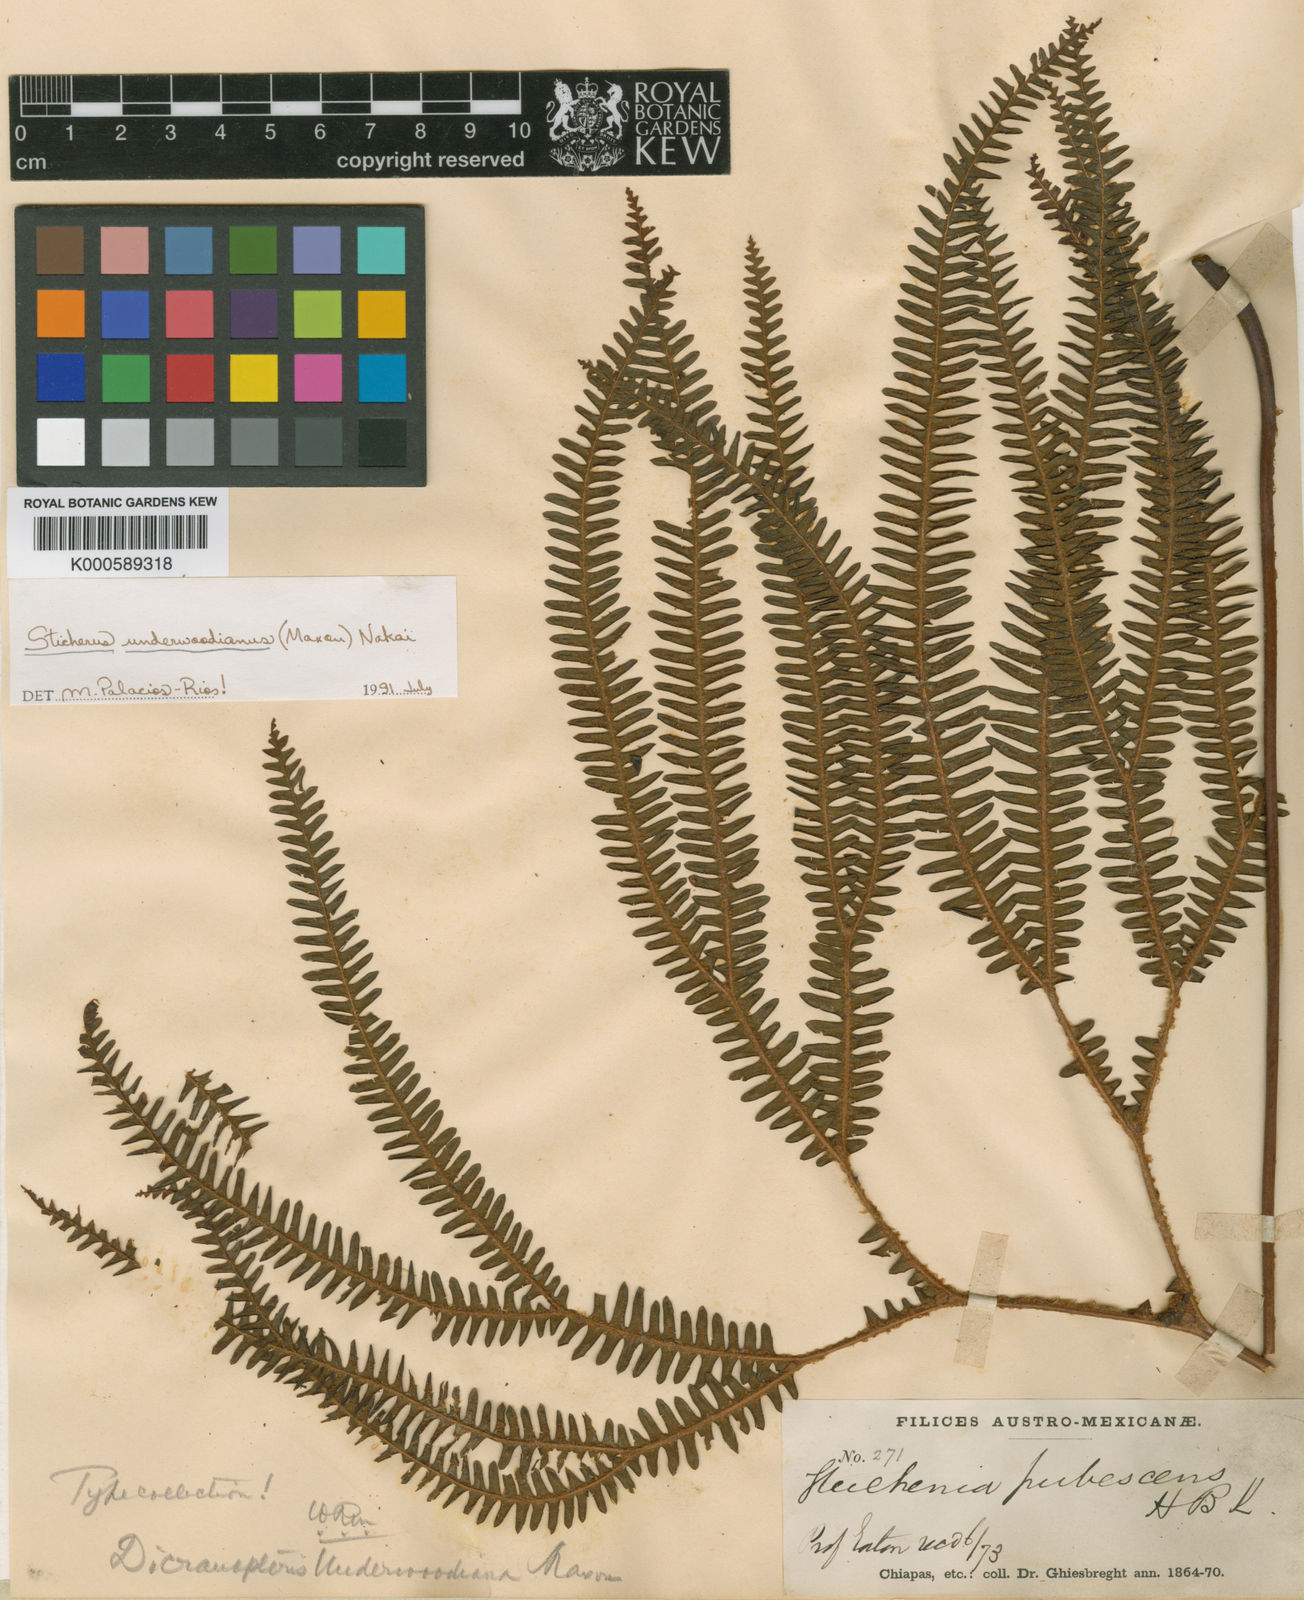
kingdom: Plantae
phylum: Tracheophyta
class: Polypodiopsida
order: Gleicheniales
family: Gleicheniaceae
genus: Sticherus
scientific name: Sticherus underwoodianus
